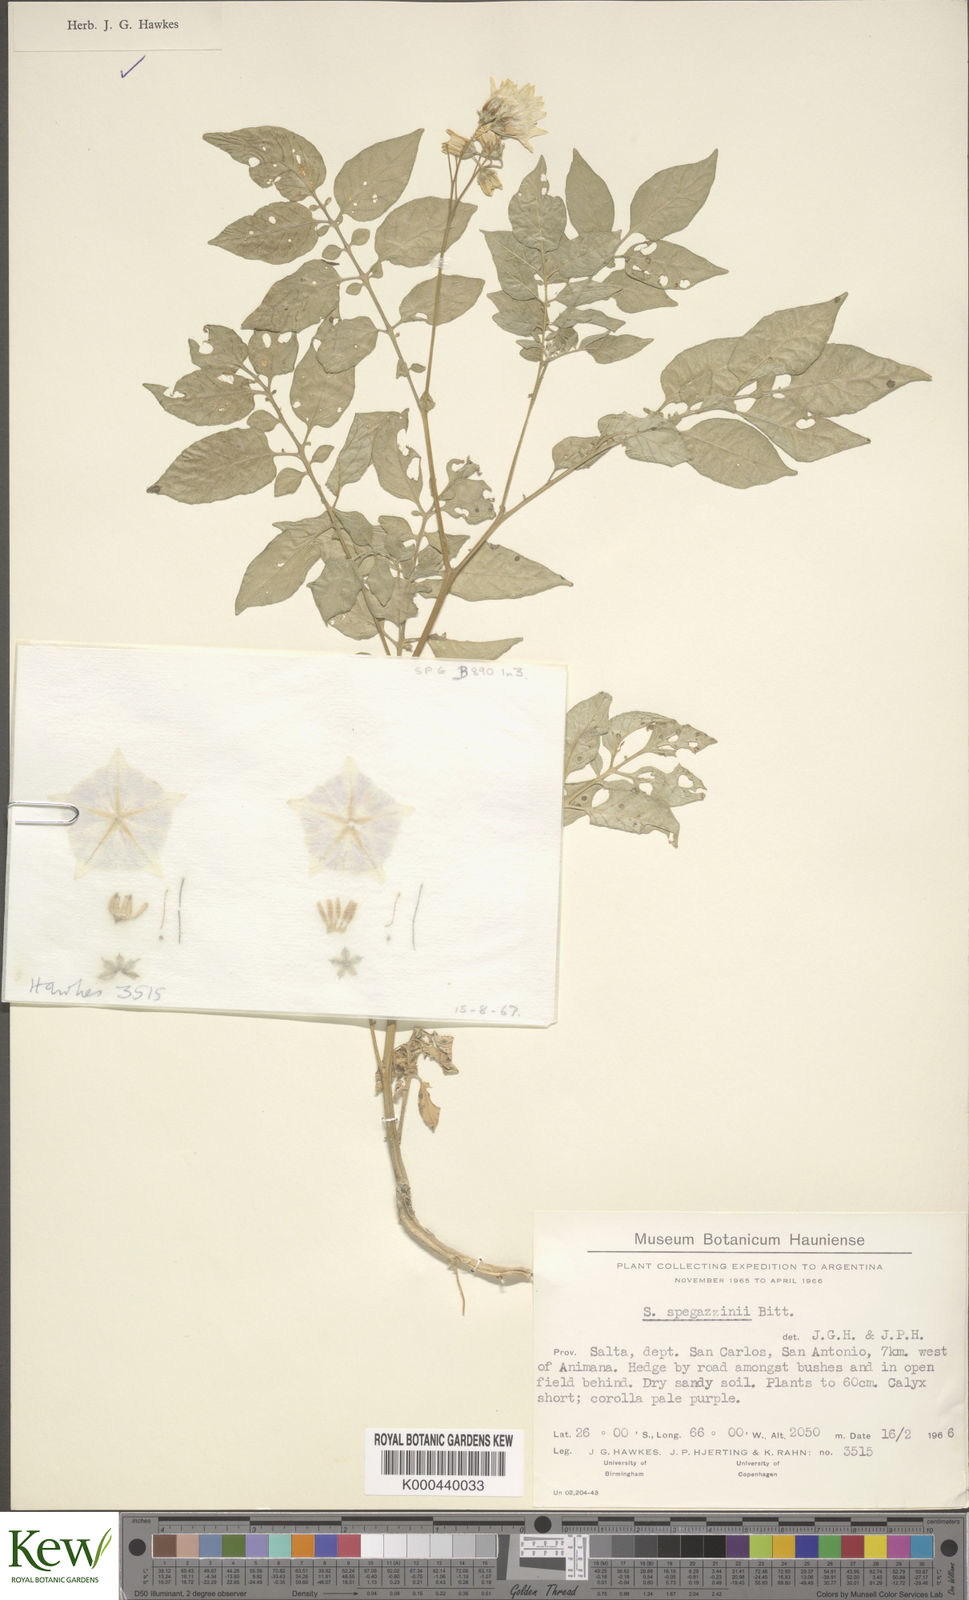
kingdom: Plantae
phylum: Tracheophyta
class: Magnoliopsida
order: Solanales
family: Solanaceae
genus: Solanum
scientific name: Solanum brevicaule
